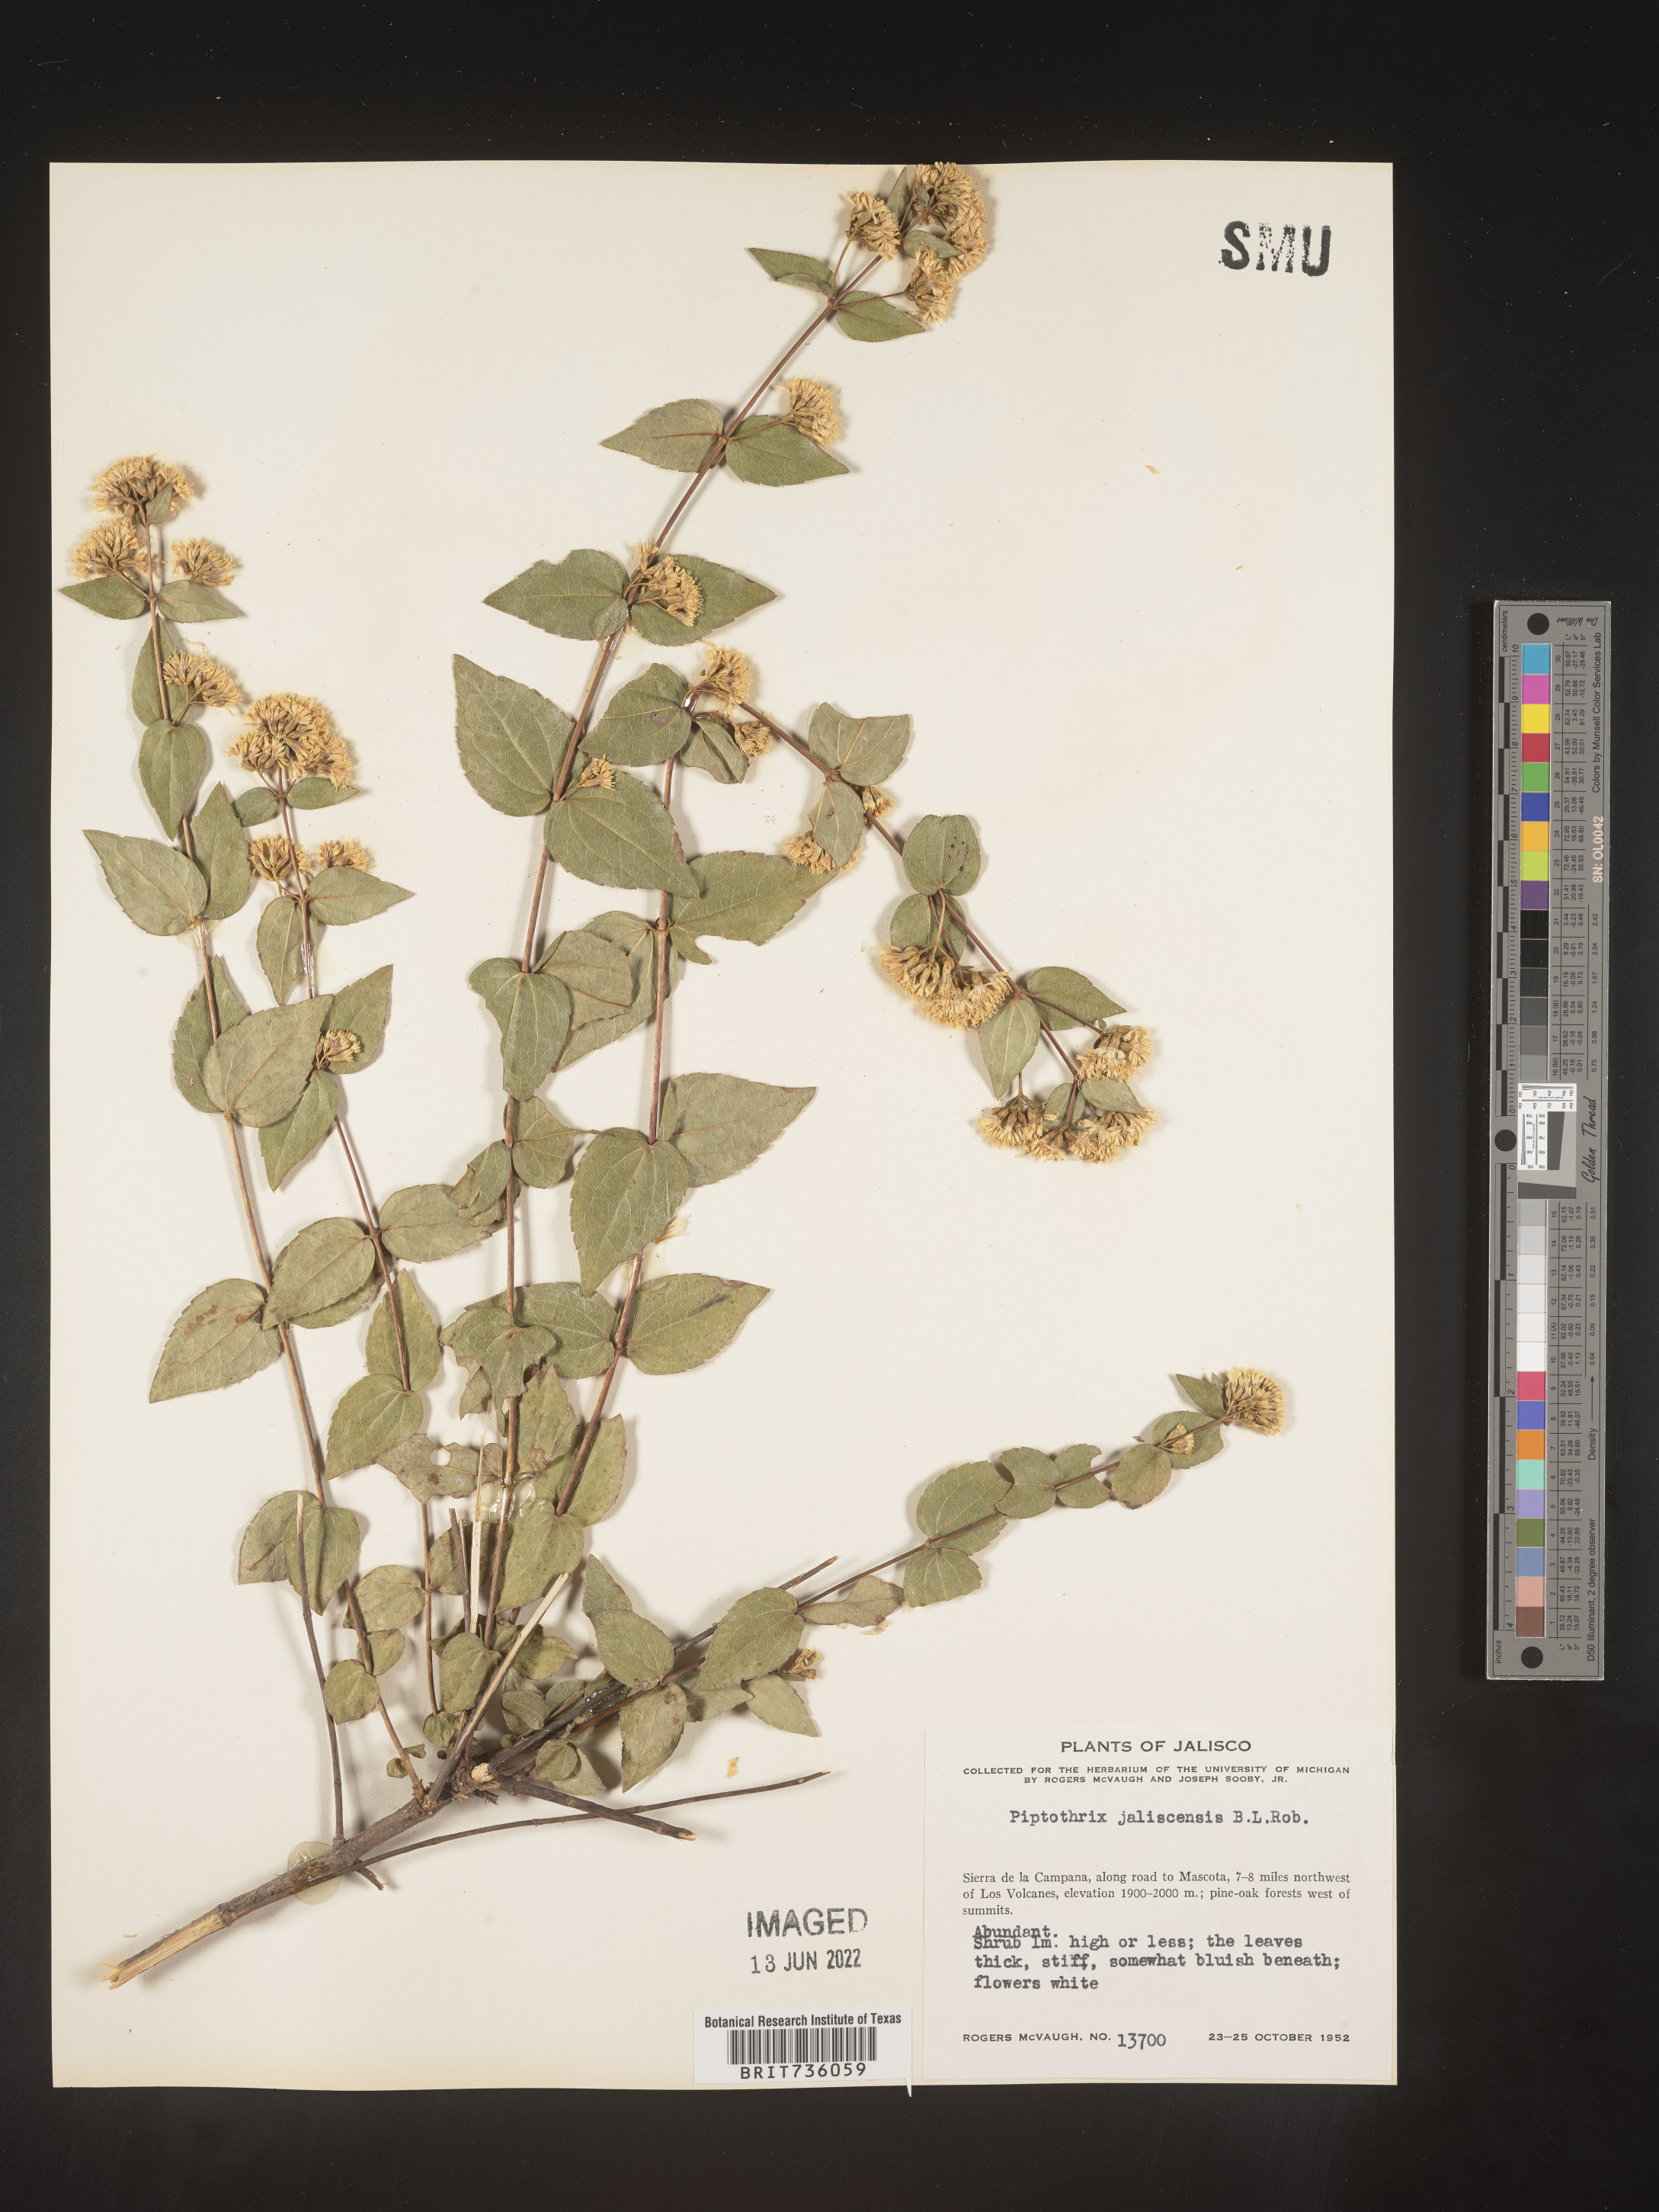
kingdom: Plantae
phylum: Tracheophyta
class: Magnoliopsida
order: Asterales
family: Asteraceae
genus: Ageratina
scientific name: Ageratina
